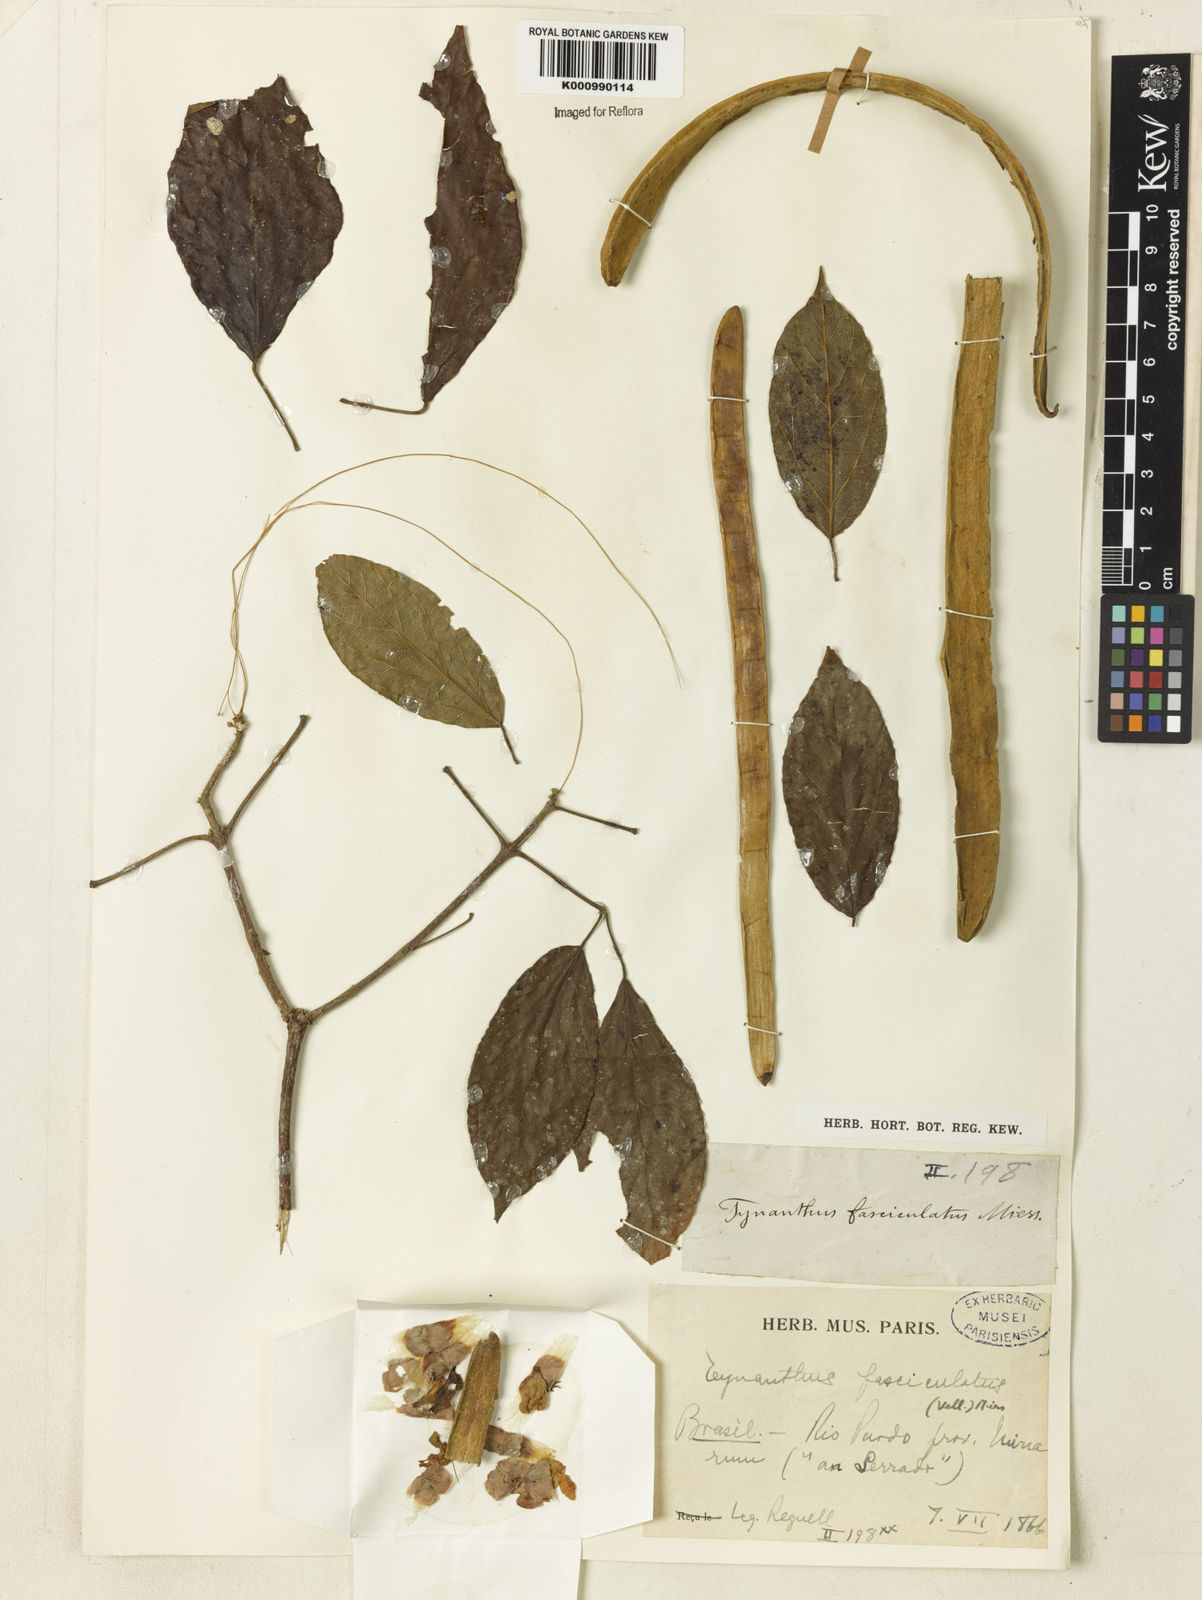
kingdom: Plantae
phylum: Tracheophyta
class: Magnoliopsida
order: Lamiales
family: Bignoniaceae
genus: Tynanthus
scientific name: Tynanthus fasciculatus
